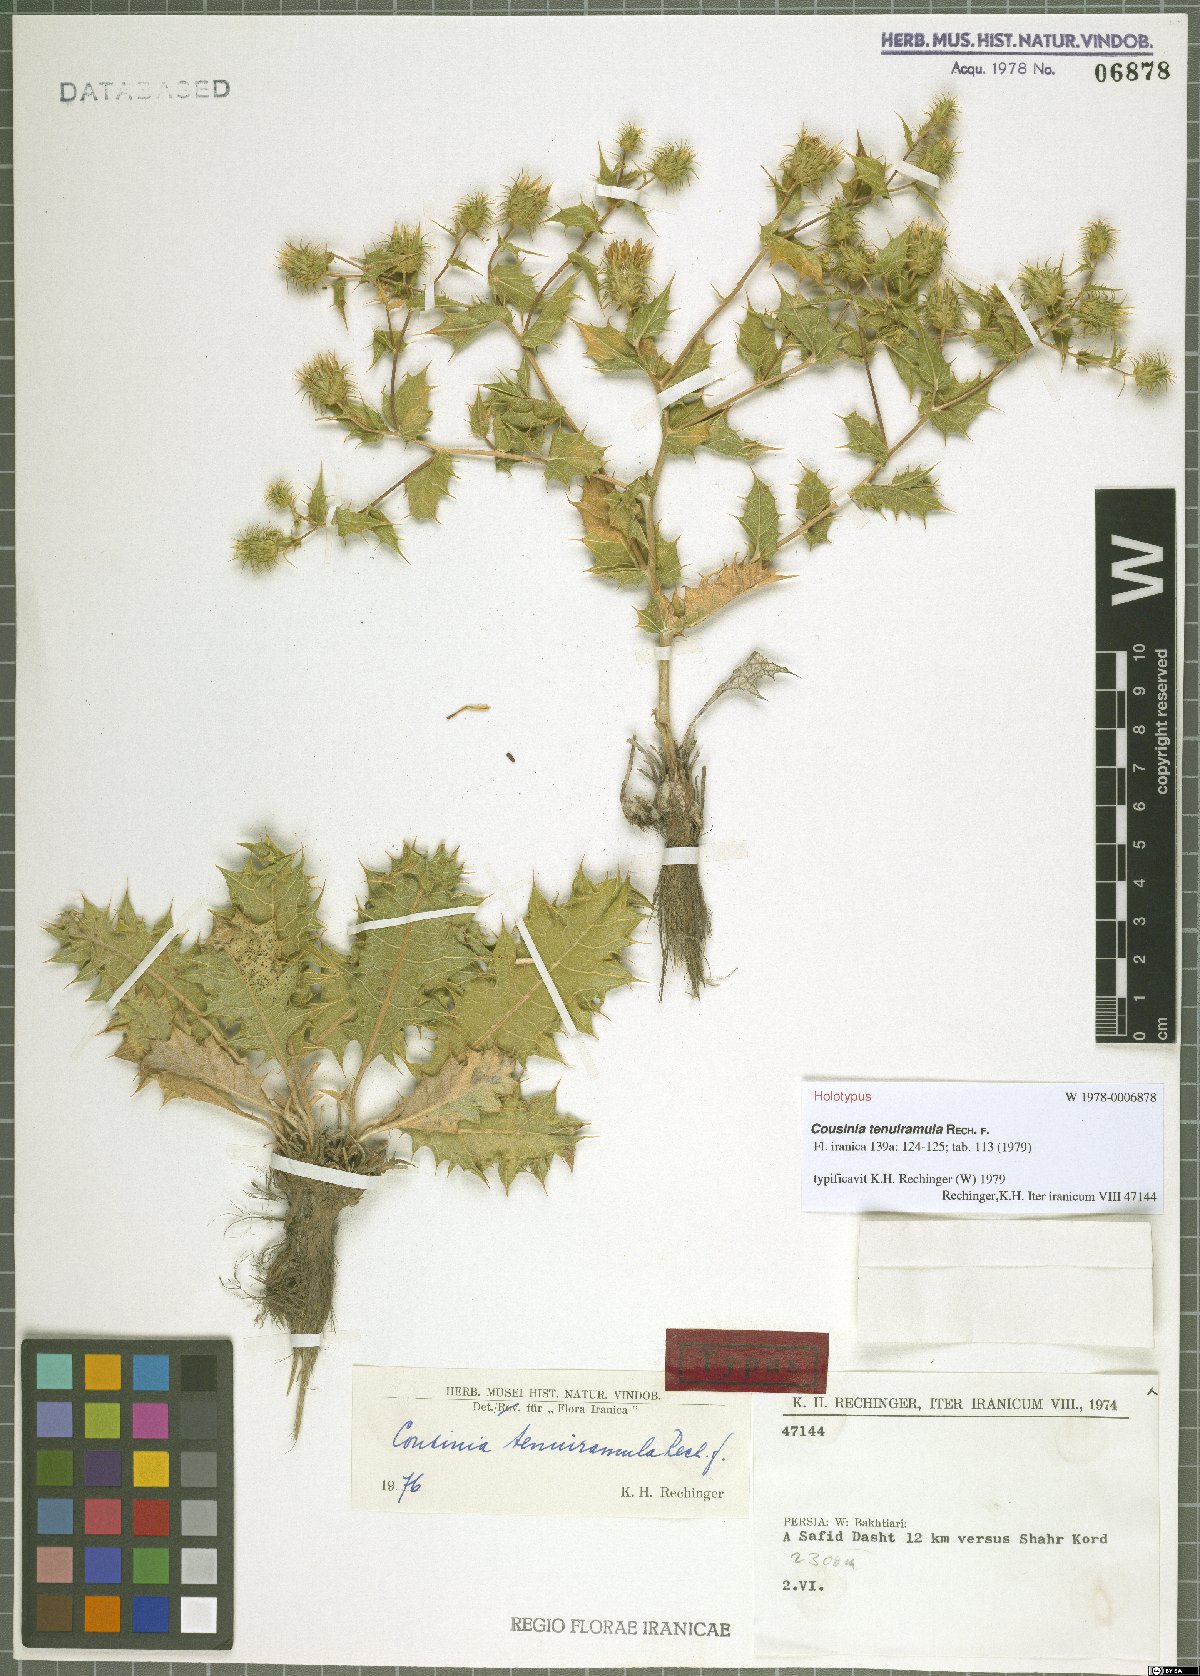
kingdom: Plantae
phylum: Tracheophyta
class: Magnoliopsida
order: Asterales
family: Asteraceae
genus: Cousinia
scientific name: Cousinia tenuiramula
